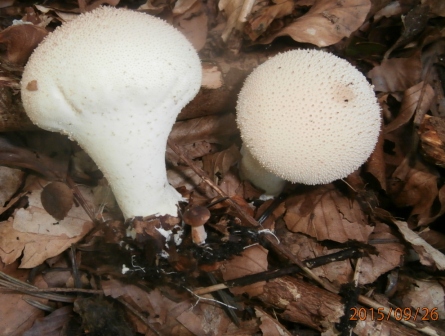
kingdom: Fungi
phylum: Basidiomycota
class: Agaricomycetes
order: Agaricales
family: Lycoperdaceae
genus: Lycoperdon
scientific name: Lycoperdon perlatum
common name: krystal-støvbold
